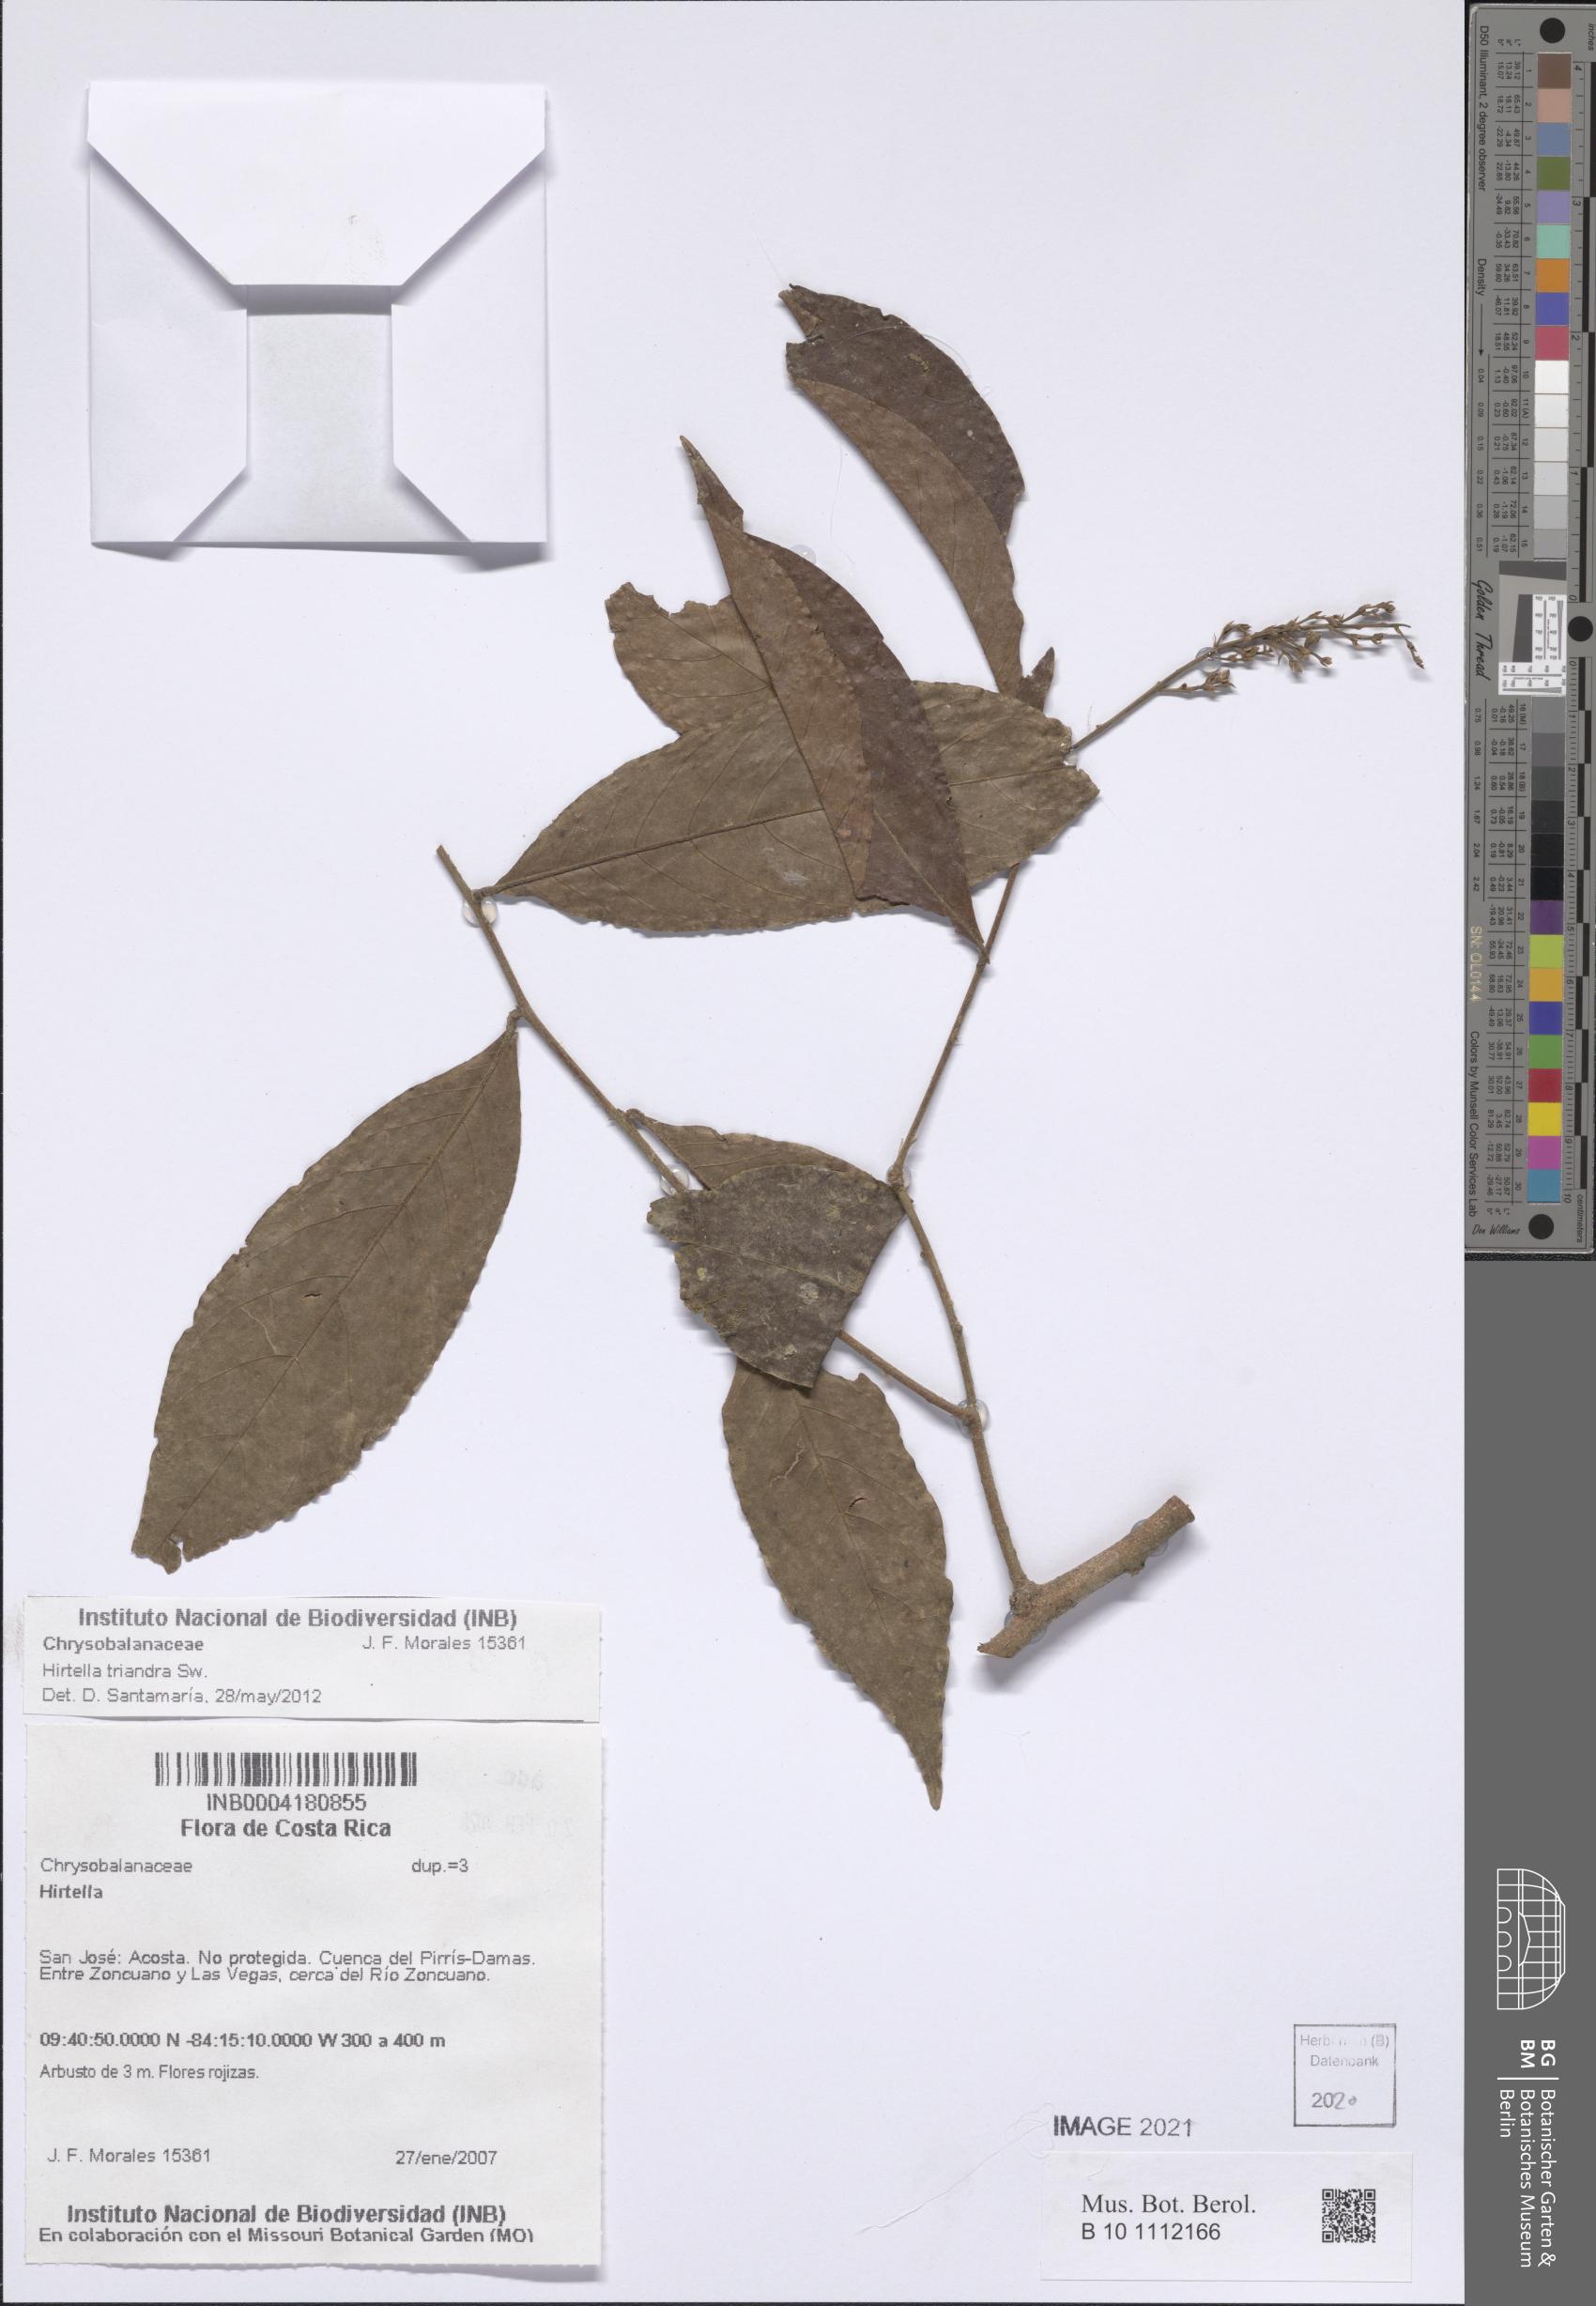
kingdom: Plantae
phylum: Tracheophyta
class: Magnoliopsida
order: Malpighiales
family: Chrysobalanaceae
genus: Hirtella
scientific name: Hirtella triandra
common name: Hairy plum
